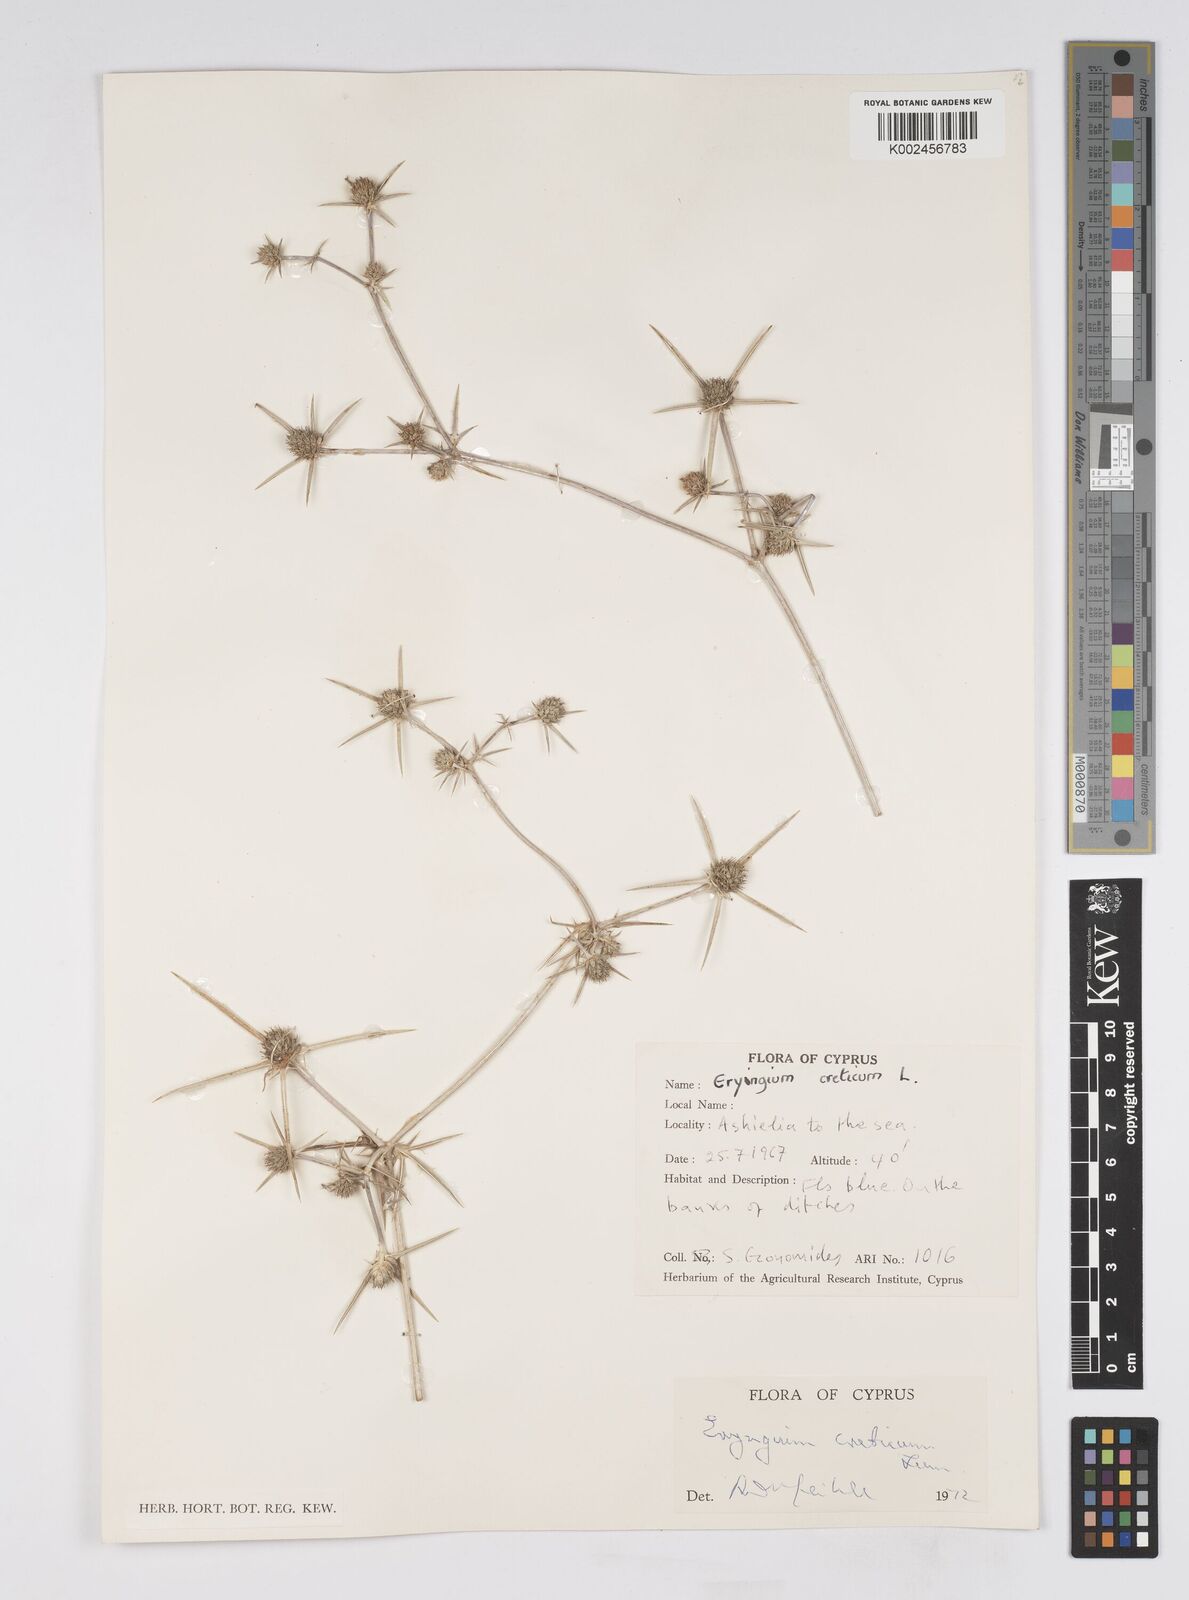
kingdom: Plantae
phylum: Tracheophyta
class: Magnoliopsida
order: Apiales
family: Apiaceae
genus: Eryngium
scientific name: Eryngium creticum
